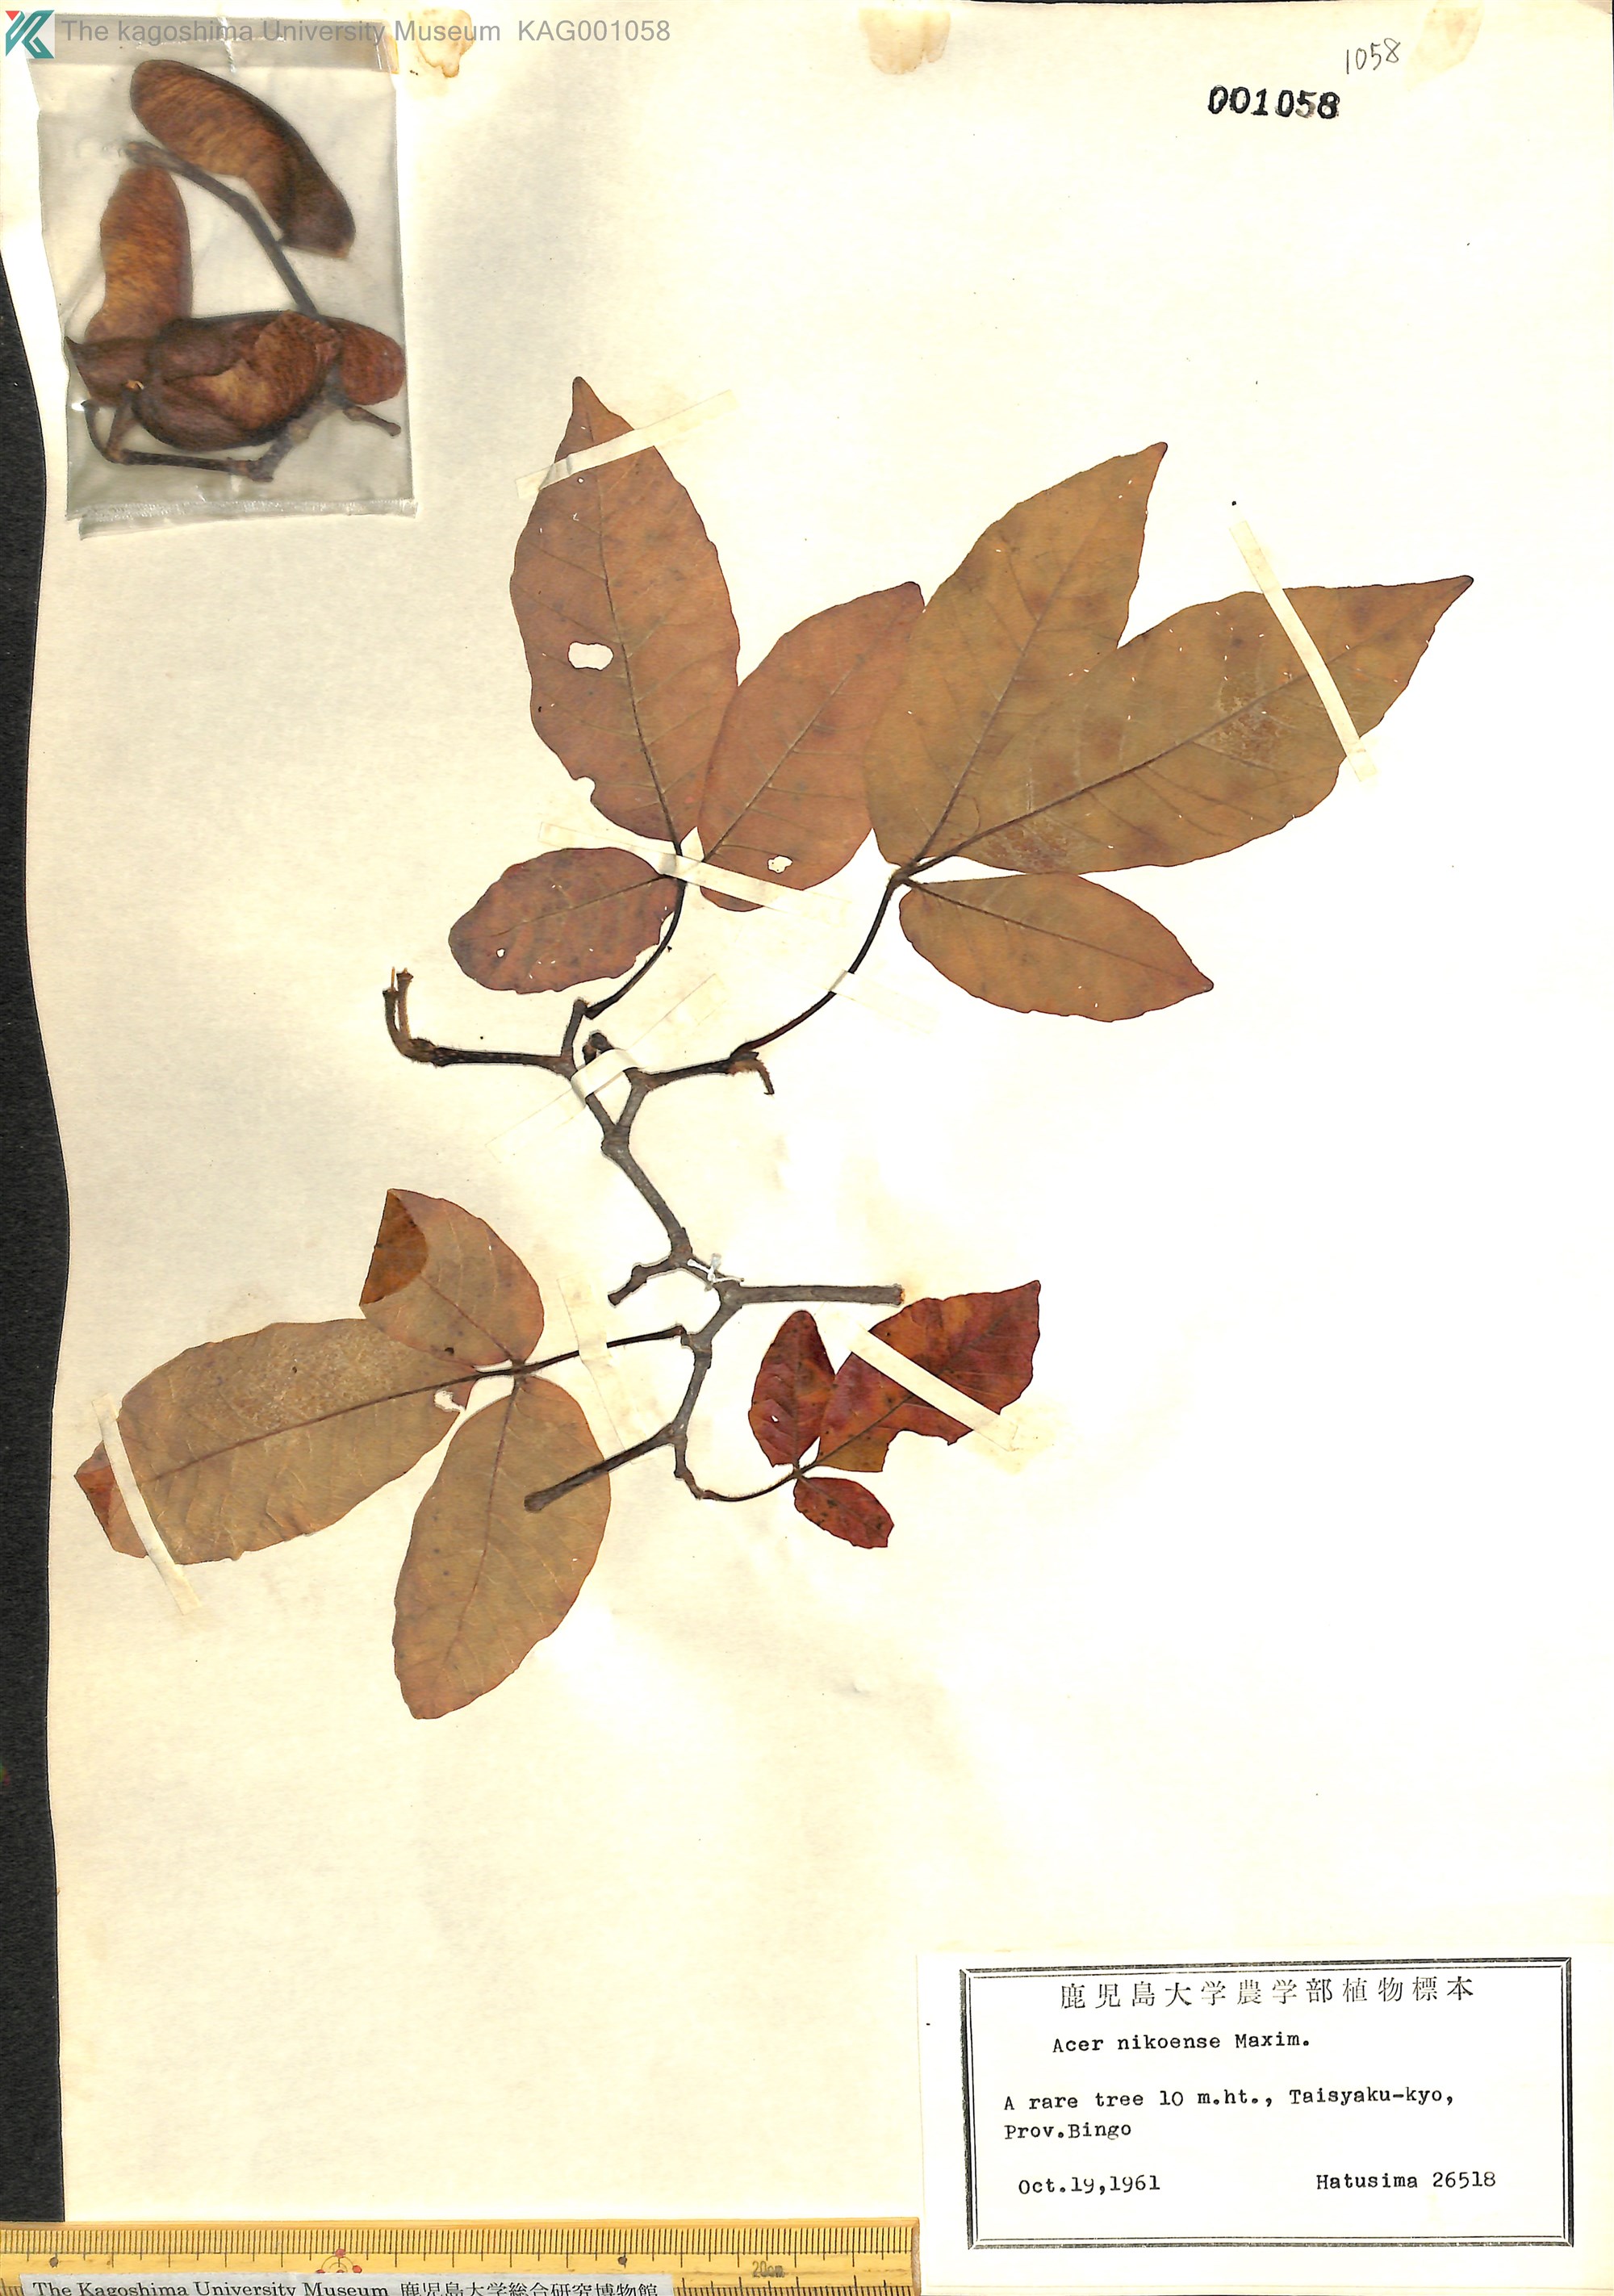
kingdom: Plantae
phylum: Tracheophyta
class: Magnoliopsida
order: Sapindales
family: Sapindaceae
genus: Acer
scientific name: Acer maximowiczianum
